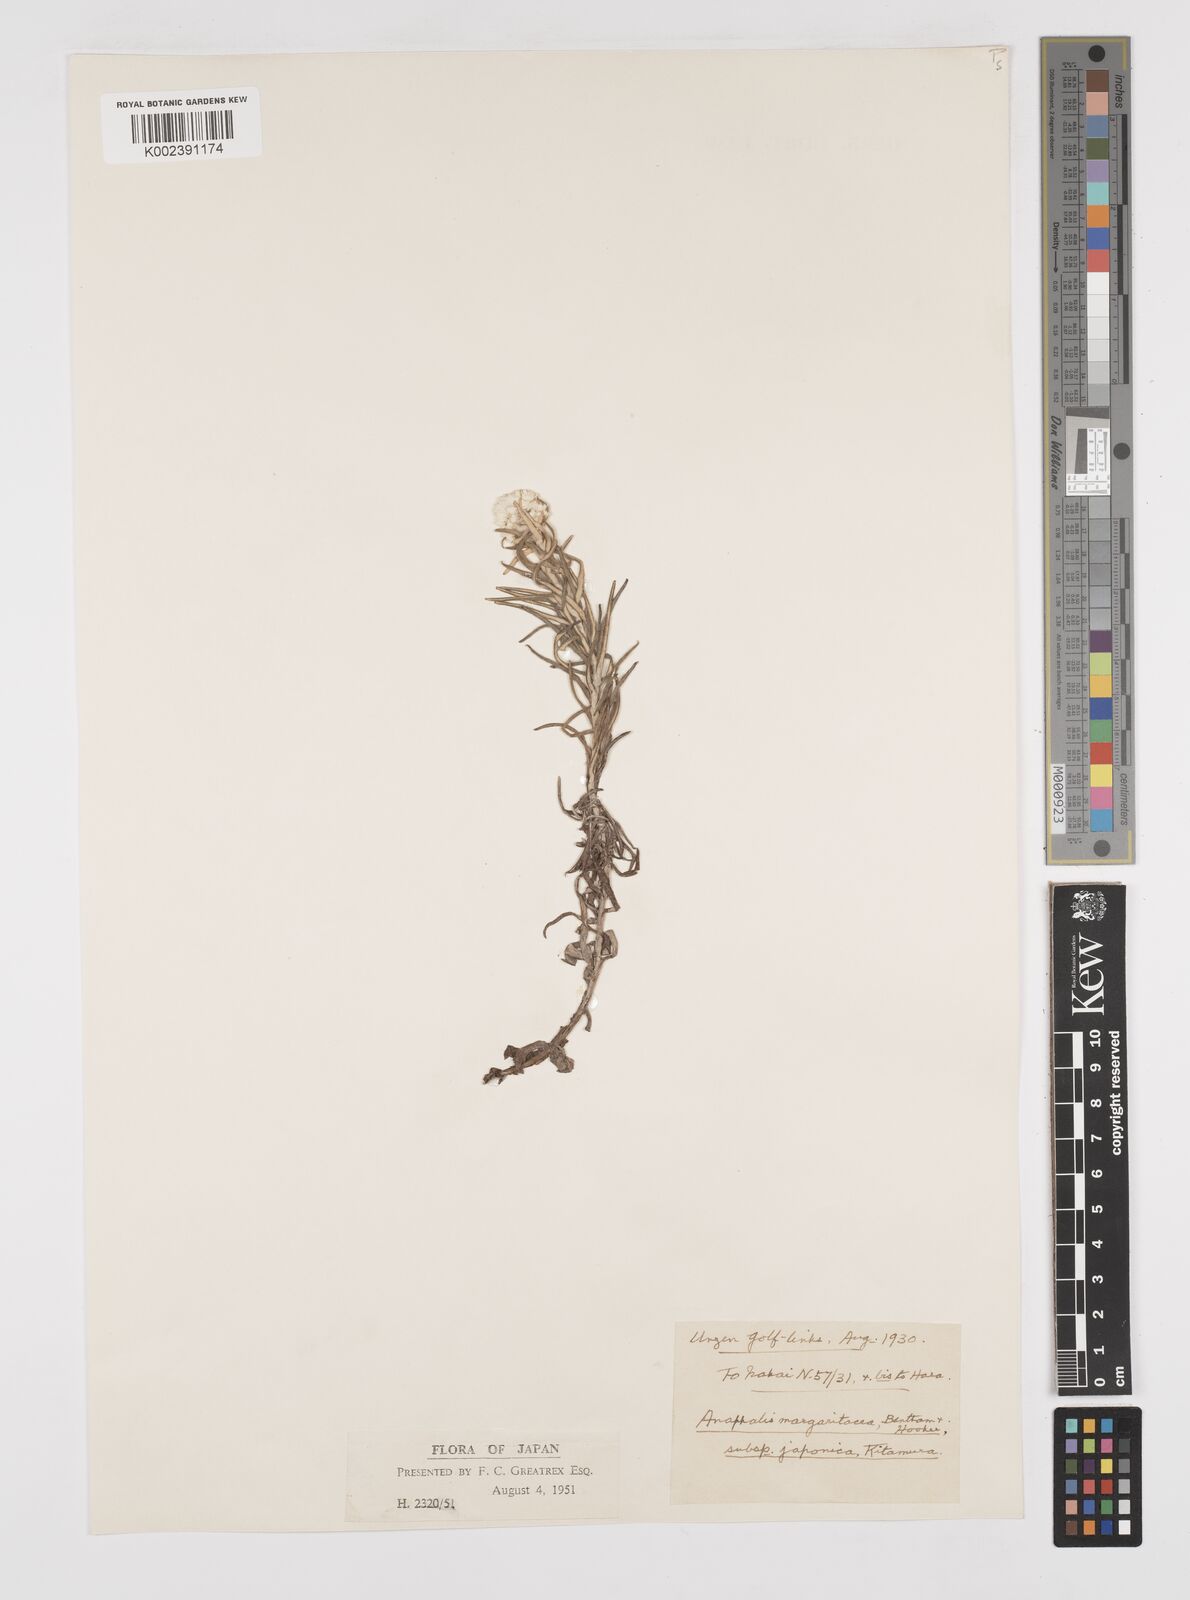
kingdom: Plantae
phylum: Tracheophyta
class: Magnoliopsida
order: Asterales
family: Asteraceae
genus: Anaphalis
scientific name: Anaphalis margaritacea
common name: Pearly everlasting
